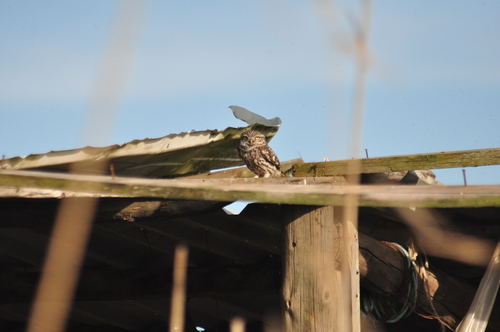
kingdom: Animalia
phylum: Chordata
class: Aves
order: Strigiformes
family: Strigidae
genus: Athene
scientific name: Athene noctua
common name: Little owl
